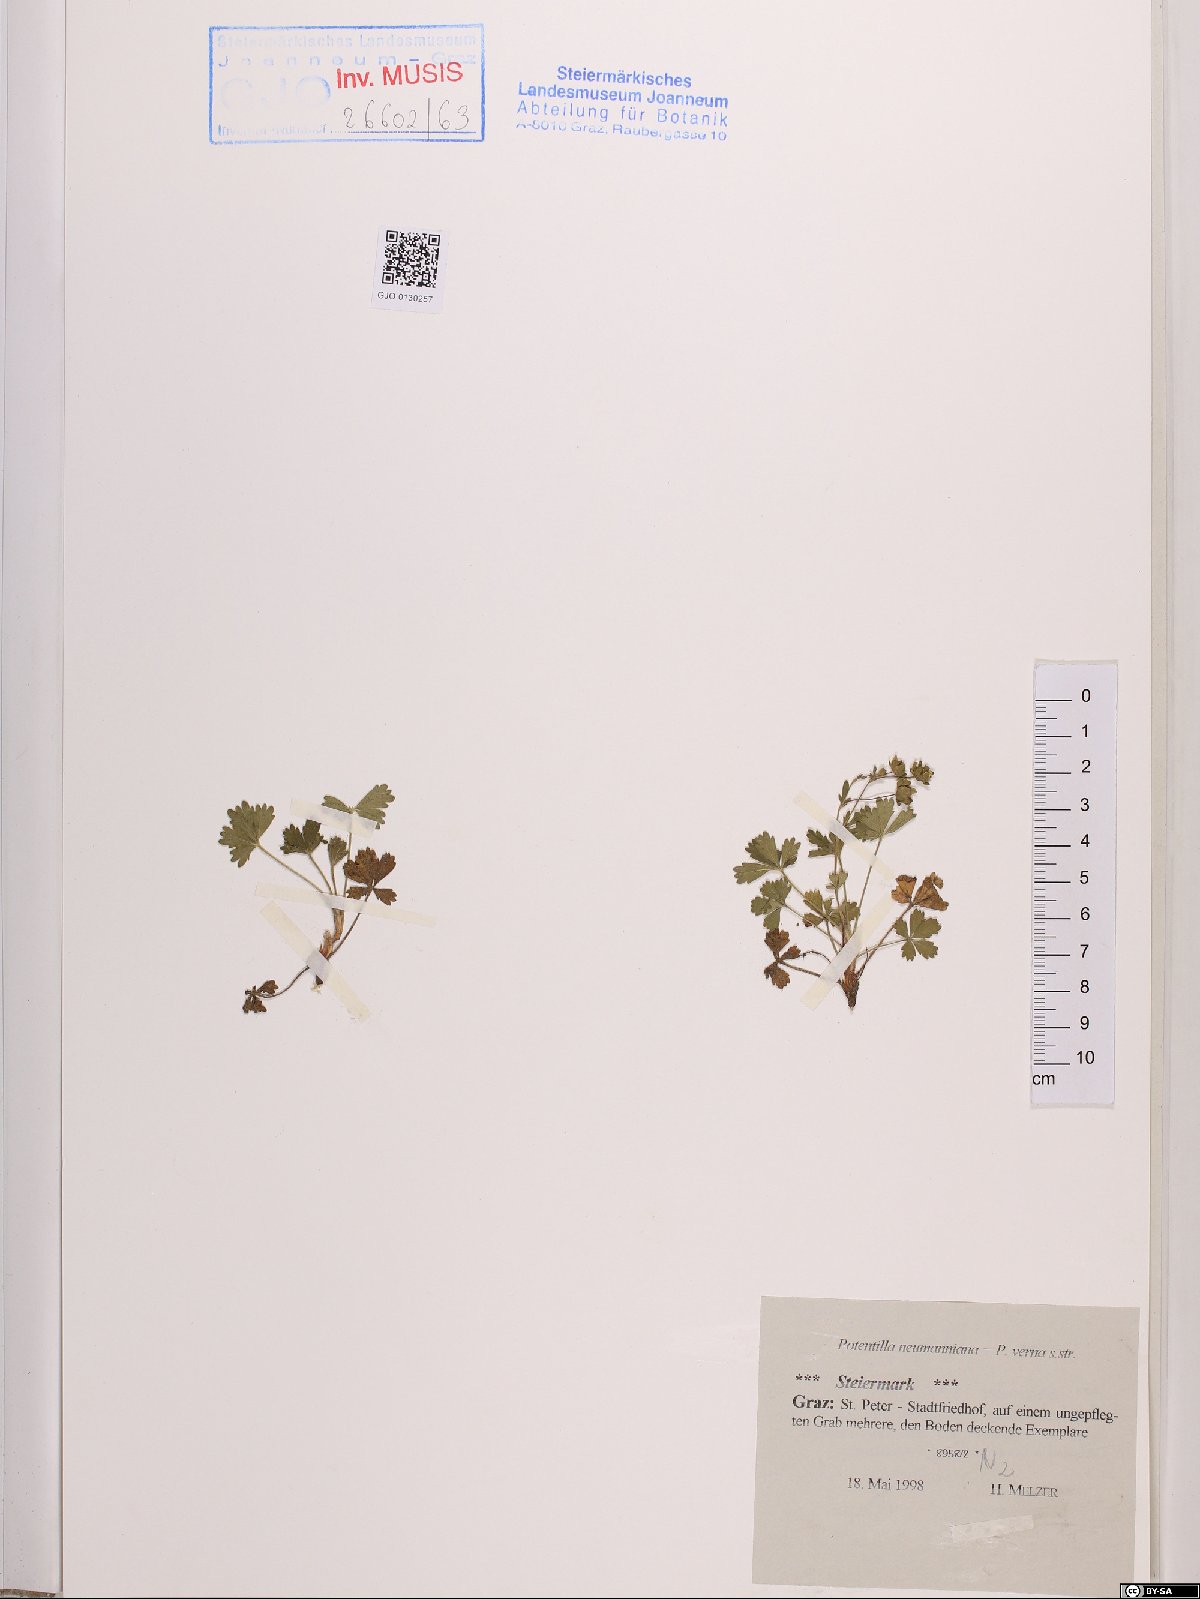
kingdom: Plantae
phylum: Tracheophyta
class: Magnoliopsida
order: Rosales
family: Rosaceae
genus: Potentilla
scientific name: Potentilla verna
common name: Spring cinquefoil
